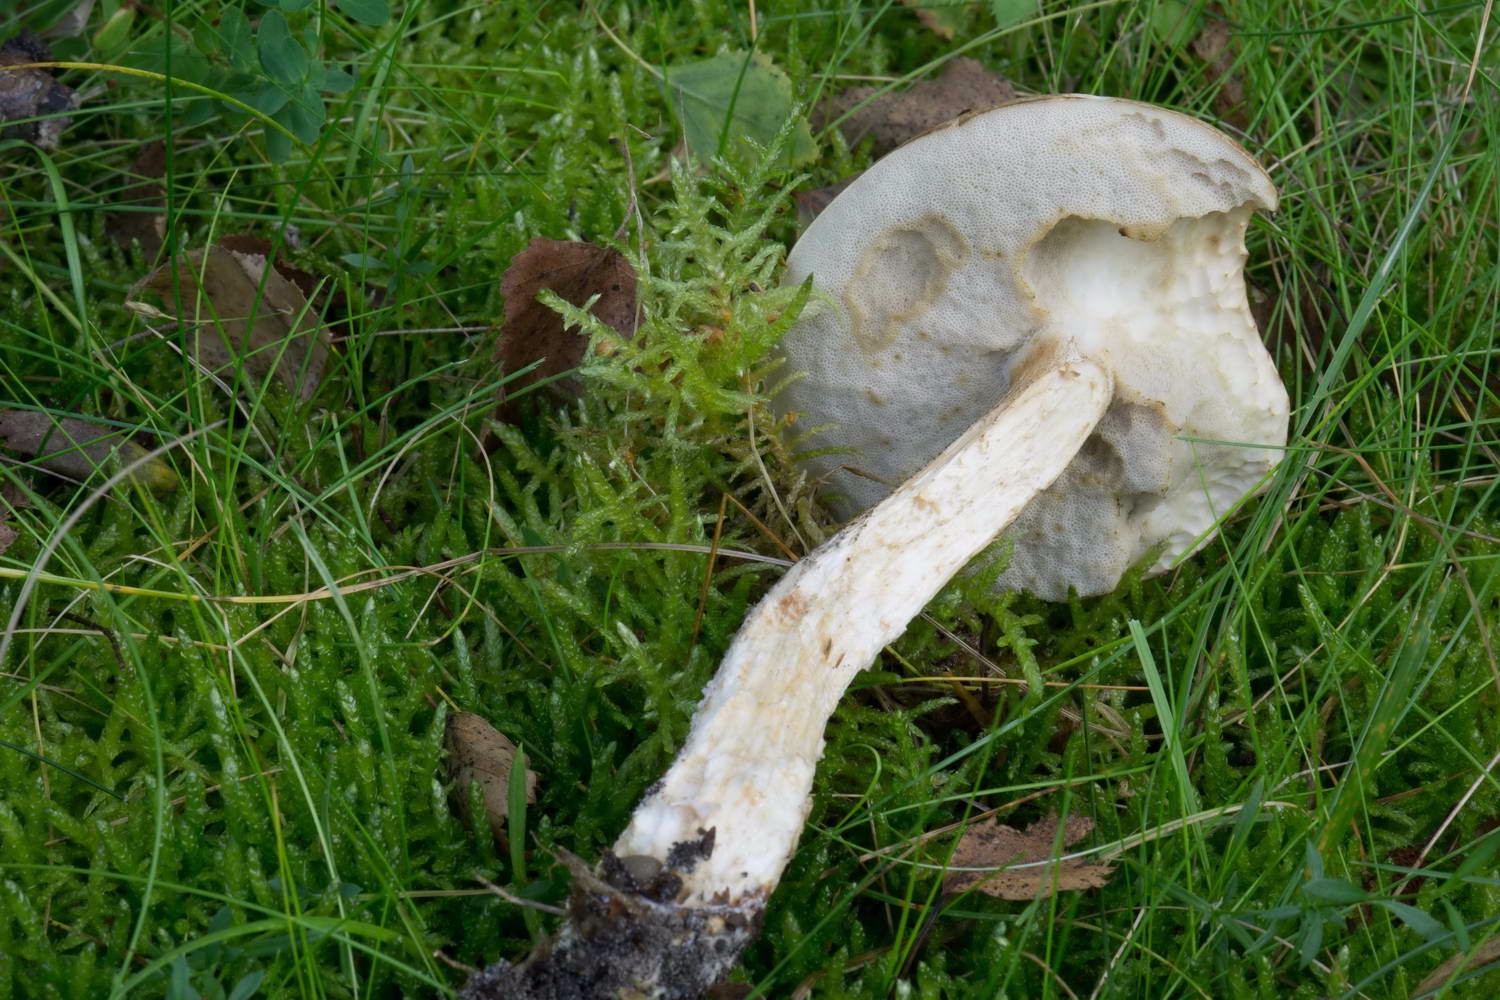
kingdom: Fungi
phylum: Basidiomycota
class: Agaricomycetes
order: Boletales
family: Boletaceae
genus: Leccinum
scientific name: Leccinum scabrum
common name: brun skælrørhat
